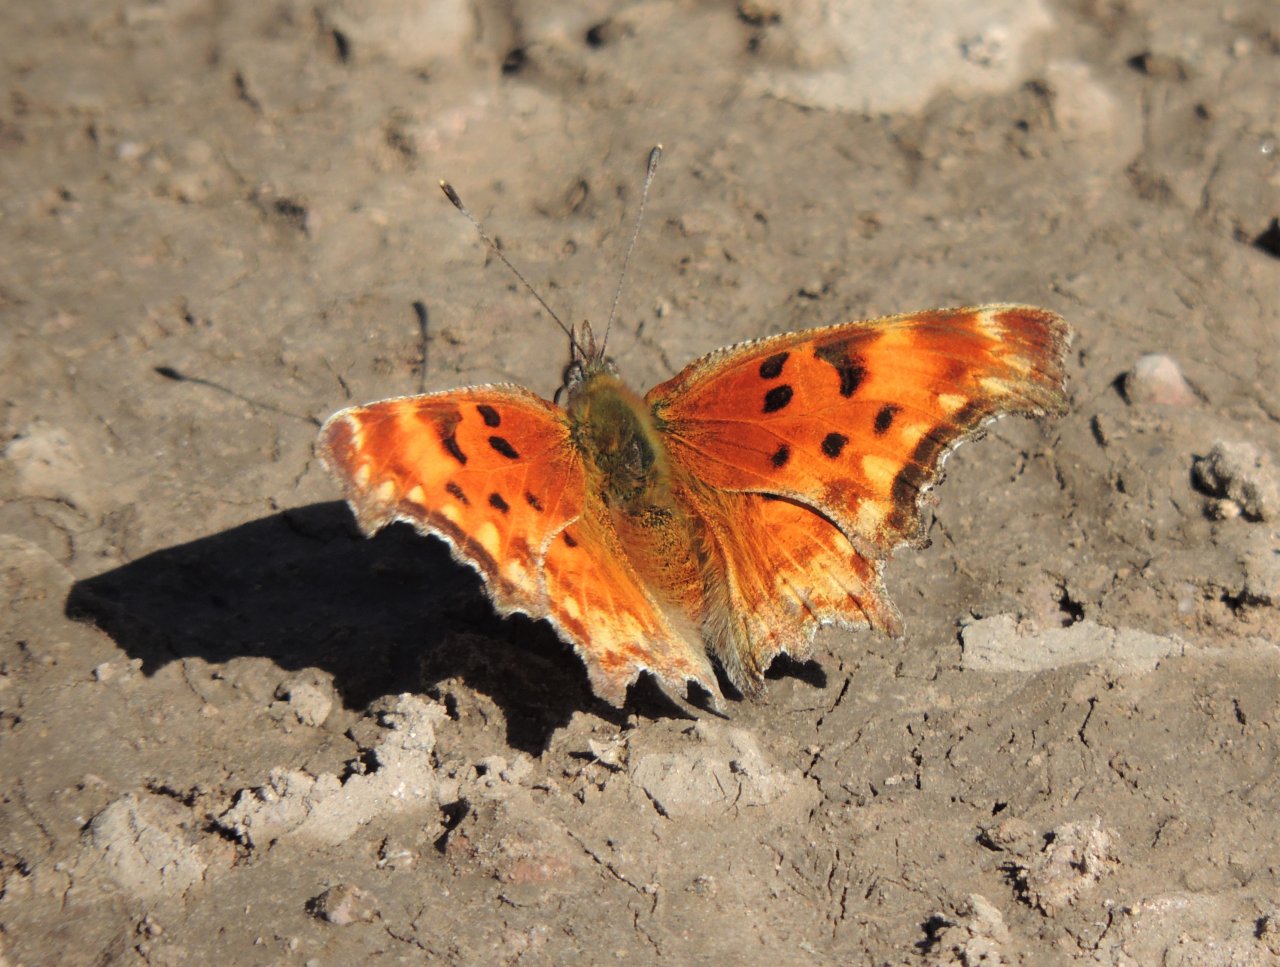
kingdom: Animalia
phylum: Arthropoda
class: Insecta
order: Lepidoptera
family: Nymphalidae
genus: Polygonia
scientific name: Polygonia gracilis
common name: Hoary Comma
